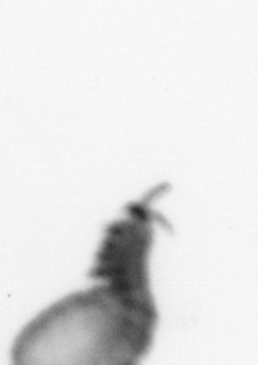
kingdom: Animalia
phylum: Annelida
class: Polychaeta
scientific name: Polychaeta
